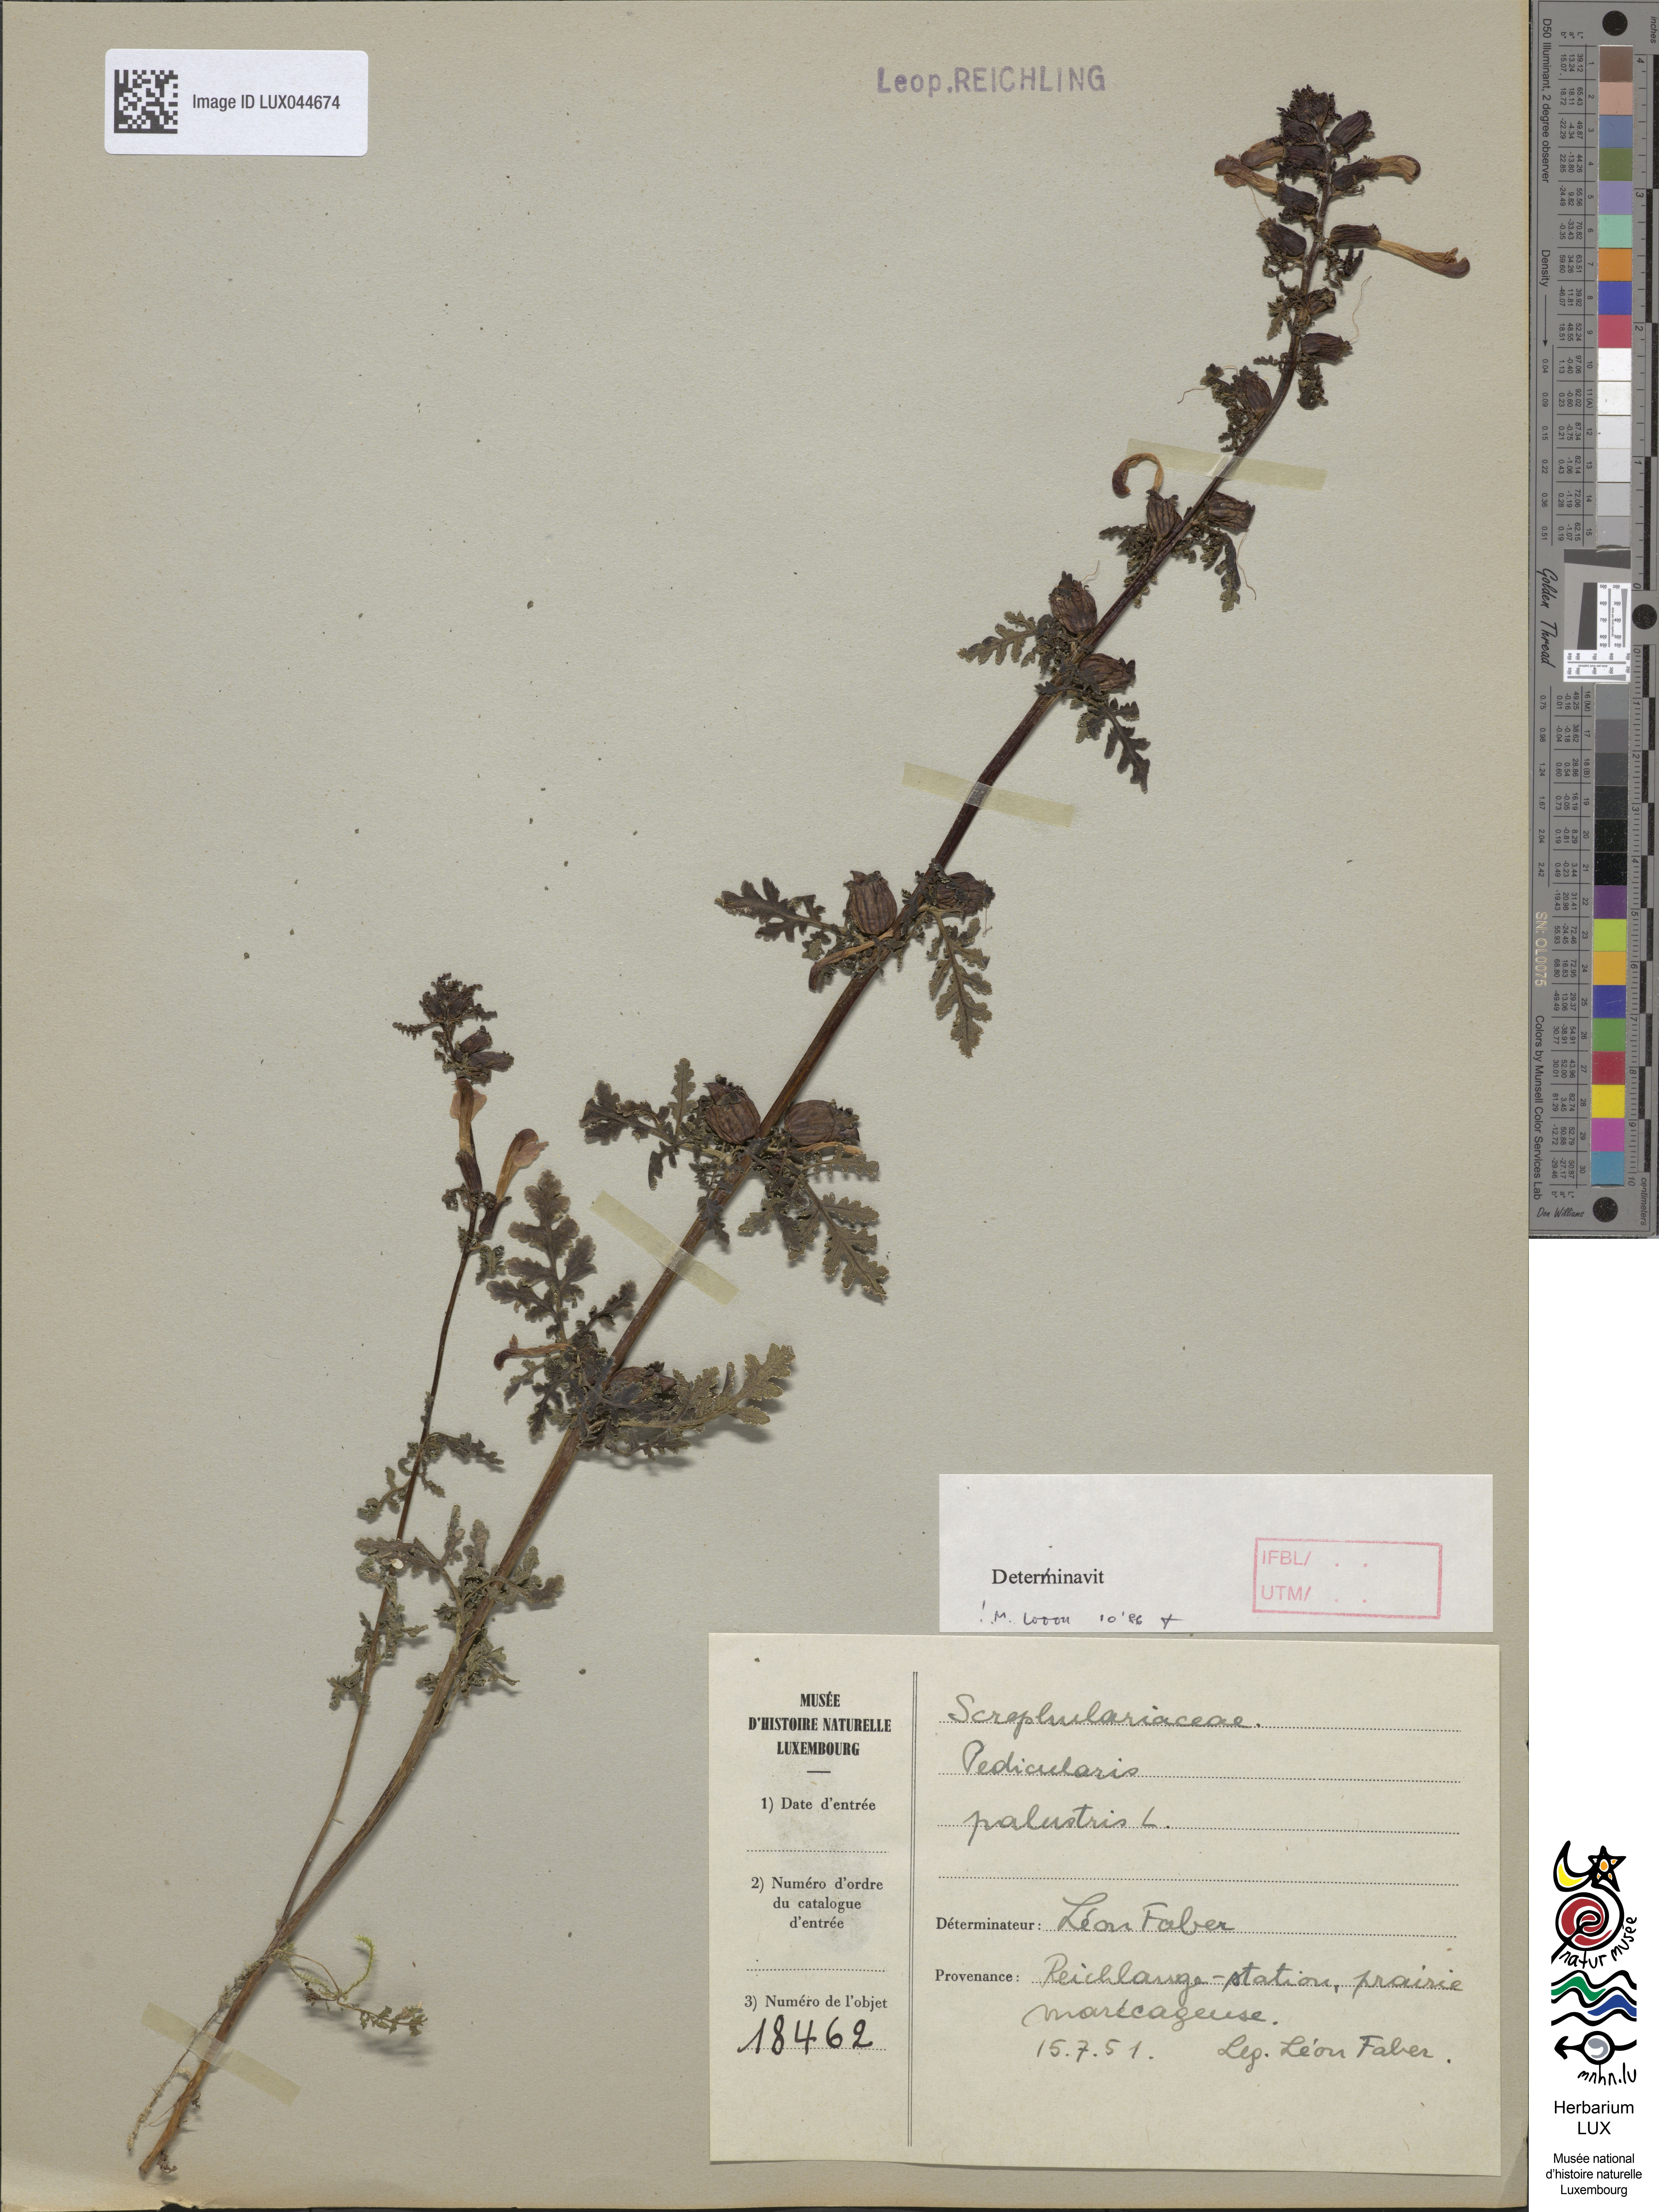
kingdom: Plantae
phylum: Tracheophyta
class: Magnoliopsida
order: Lamiales
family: Orobanchaceae
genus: Pedicularis
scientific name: Pedicularis palustris
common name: Marsh lousewort
